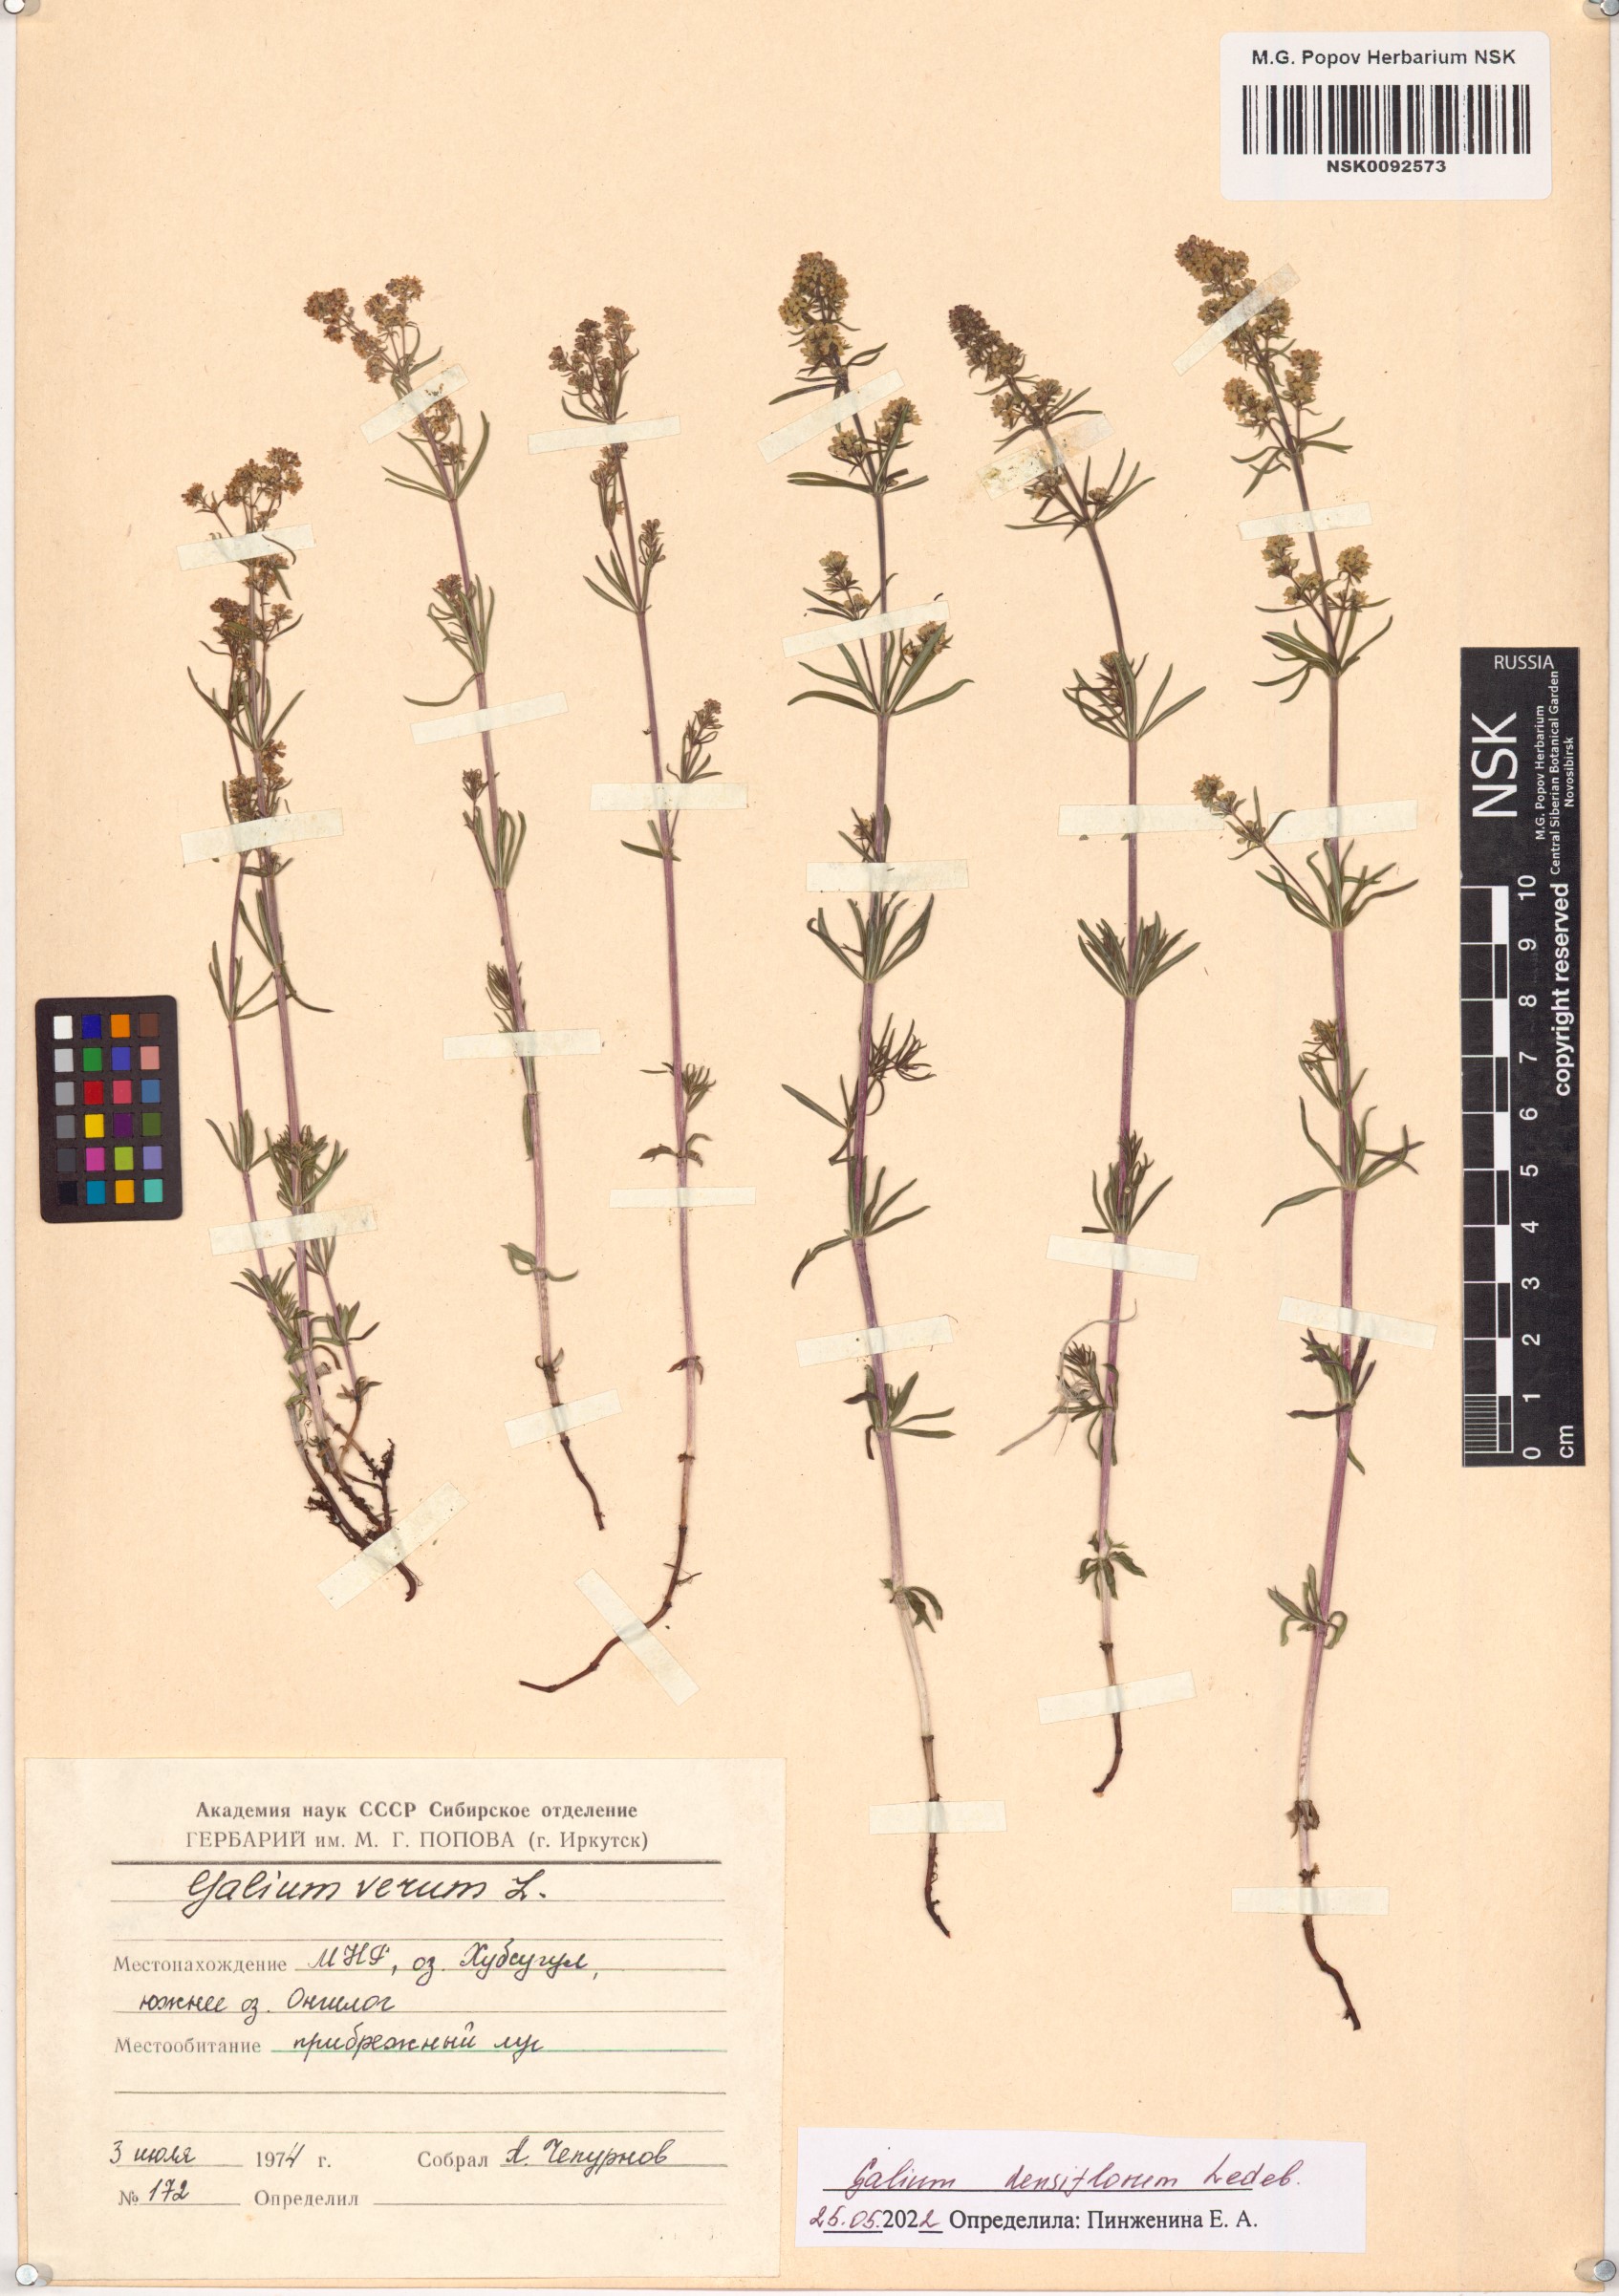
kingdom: Plantae
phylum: Tracheophyta
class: Magnoliopsida
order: Gentianales
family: Rubiaceae
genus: Galium
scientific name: Galium densiflorum
